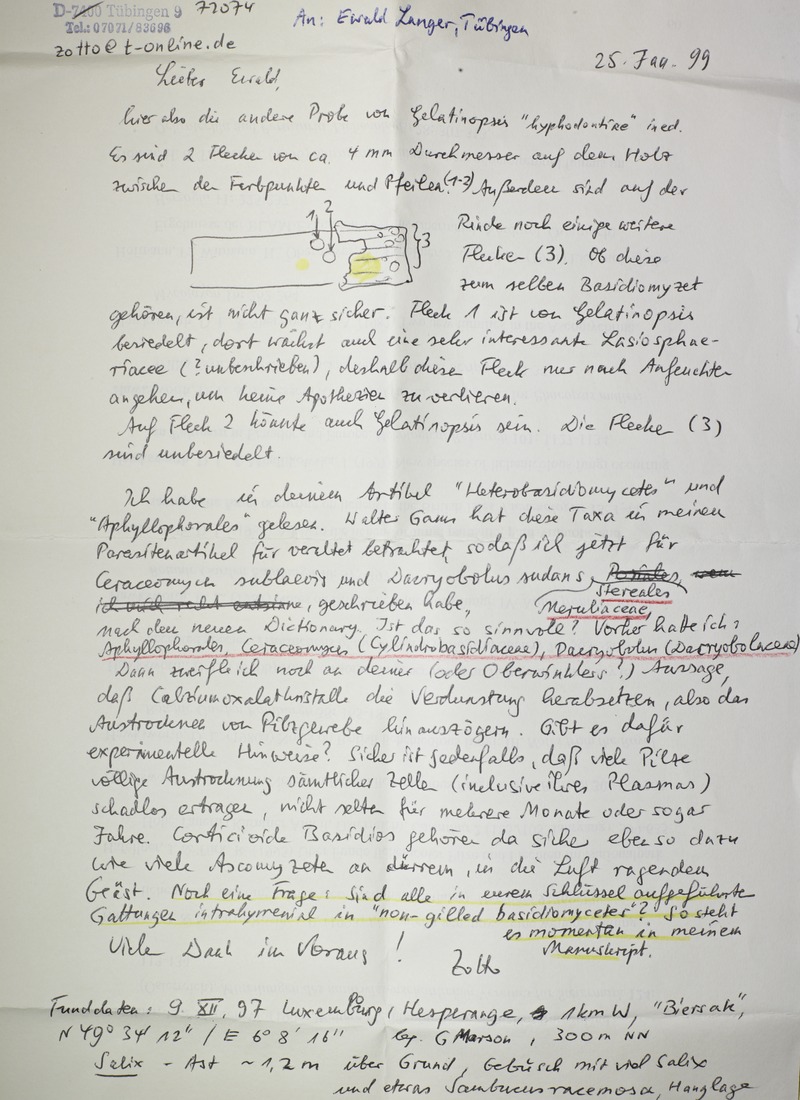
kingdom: Fungi
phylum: Ascomycota
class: Leotiomycetes
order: Phacidiales
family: Helicogoniaceae
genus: Gelatinopsis
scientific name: Gelatinopsis polyconidiata
